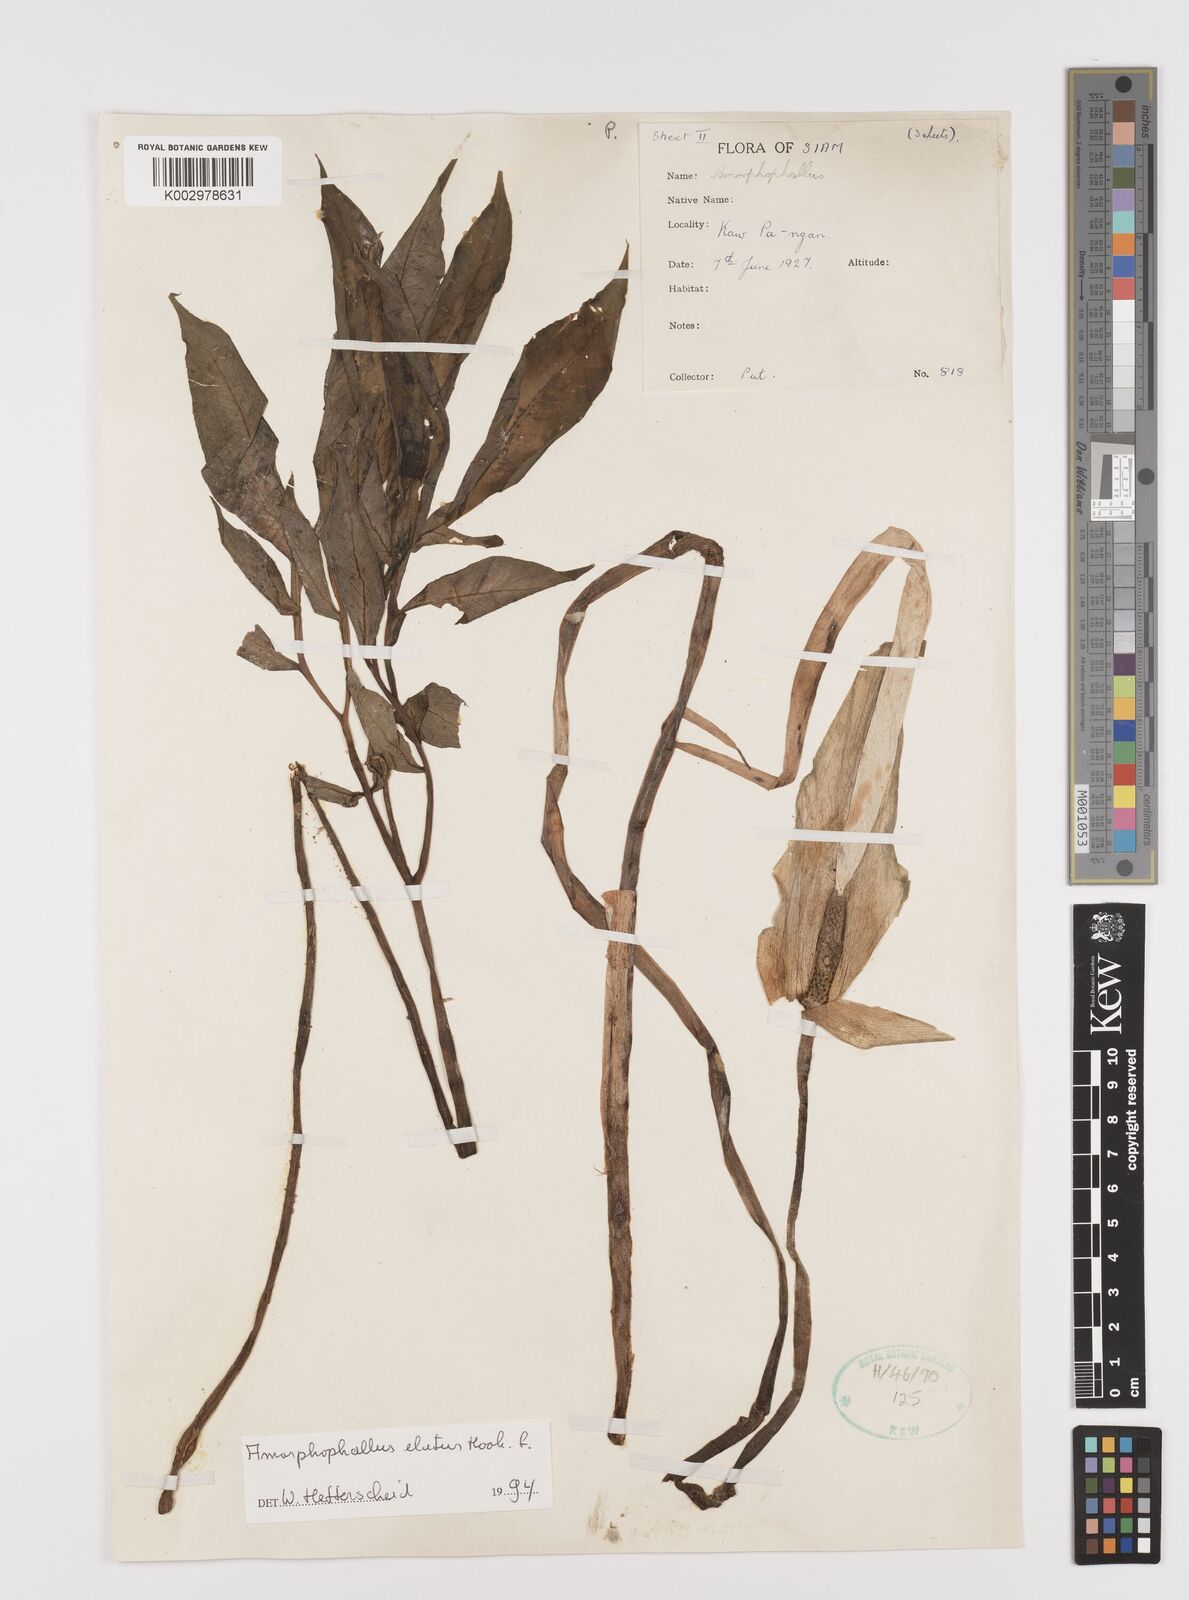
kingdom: Plantae
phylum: Tracheophyta
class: Liliopsida
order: Alismatales
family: Araceae
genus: Amorphophallus
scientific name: Amorphophallus elatus
